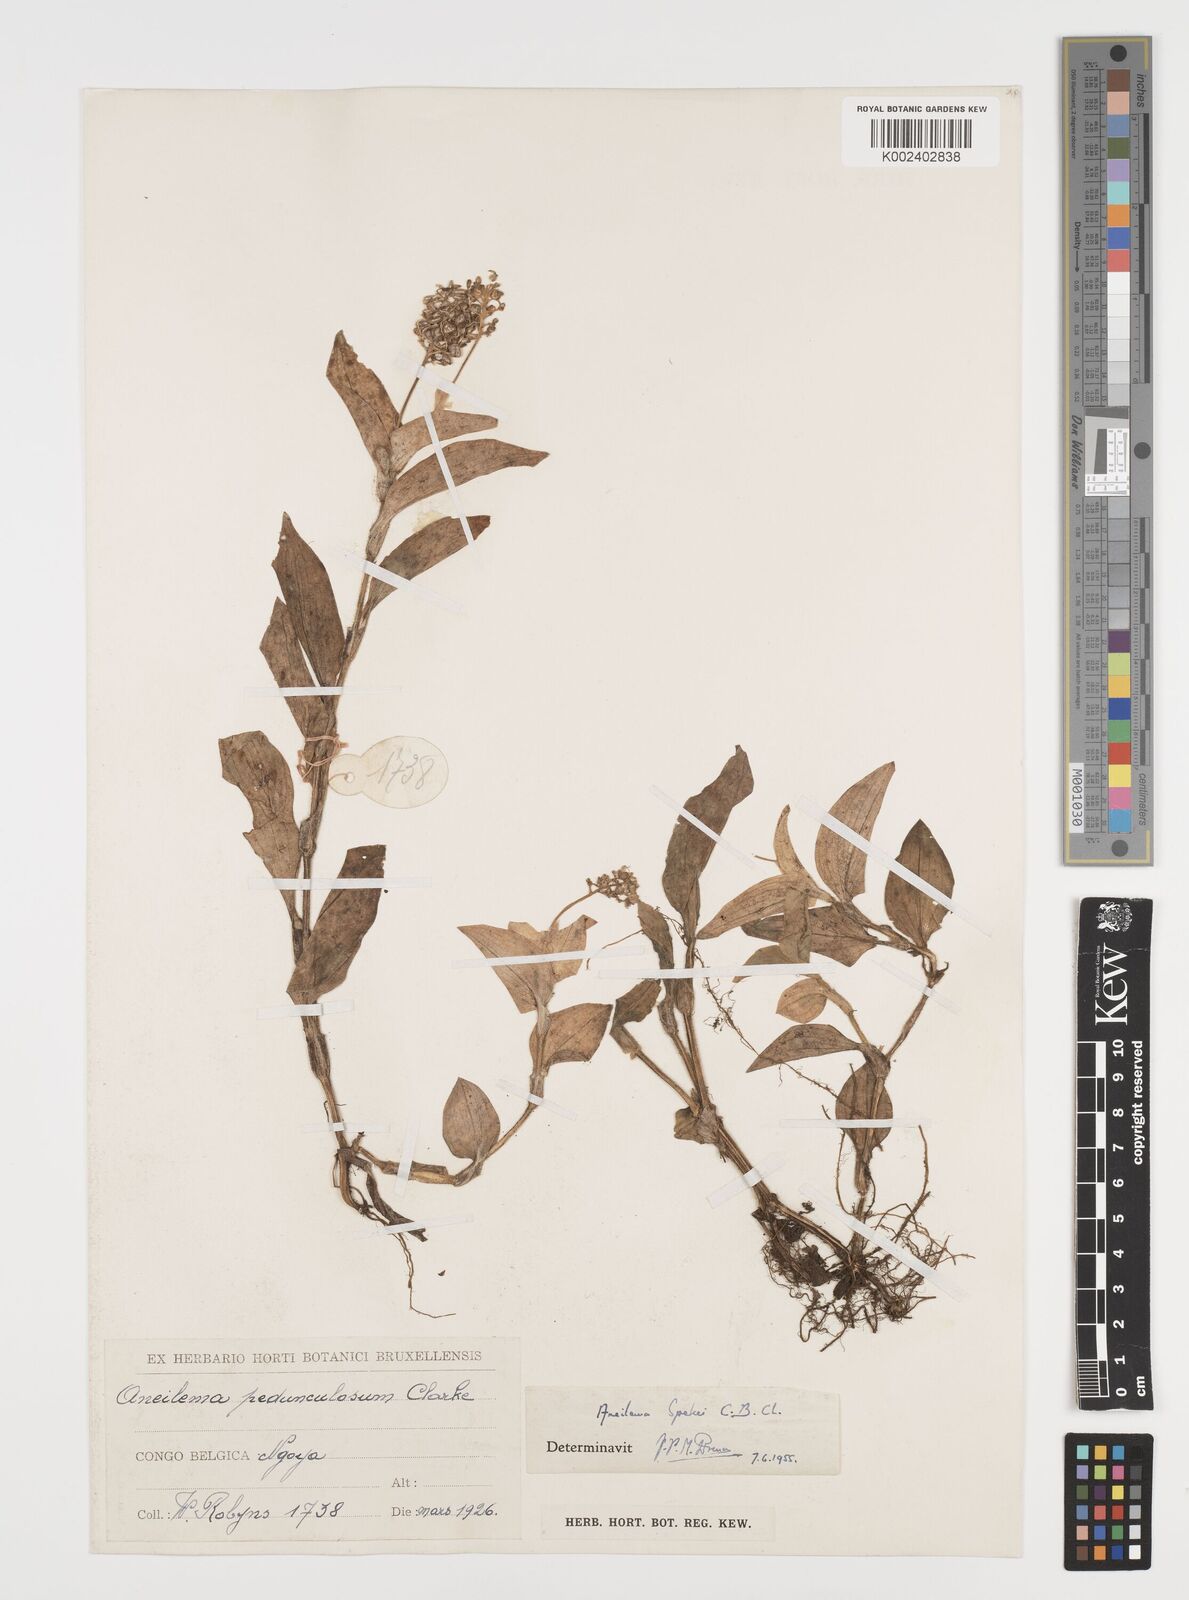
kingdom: Plantae
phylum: Tracheophyta
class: Liliopsida
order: Commelinales
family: Commelinaceae
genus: Aneilema
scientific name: Aneilema spekei
